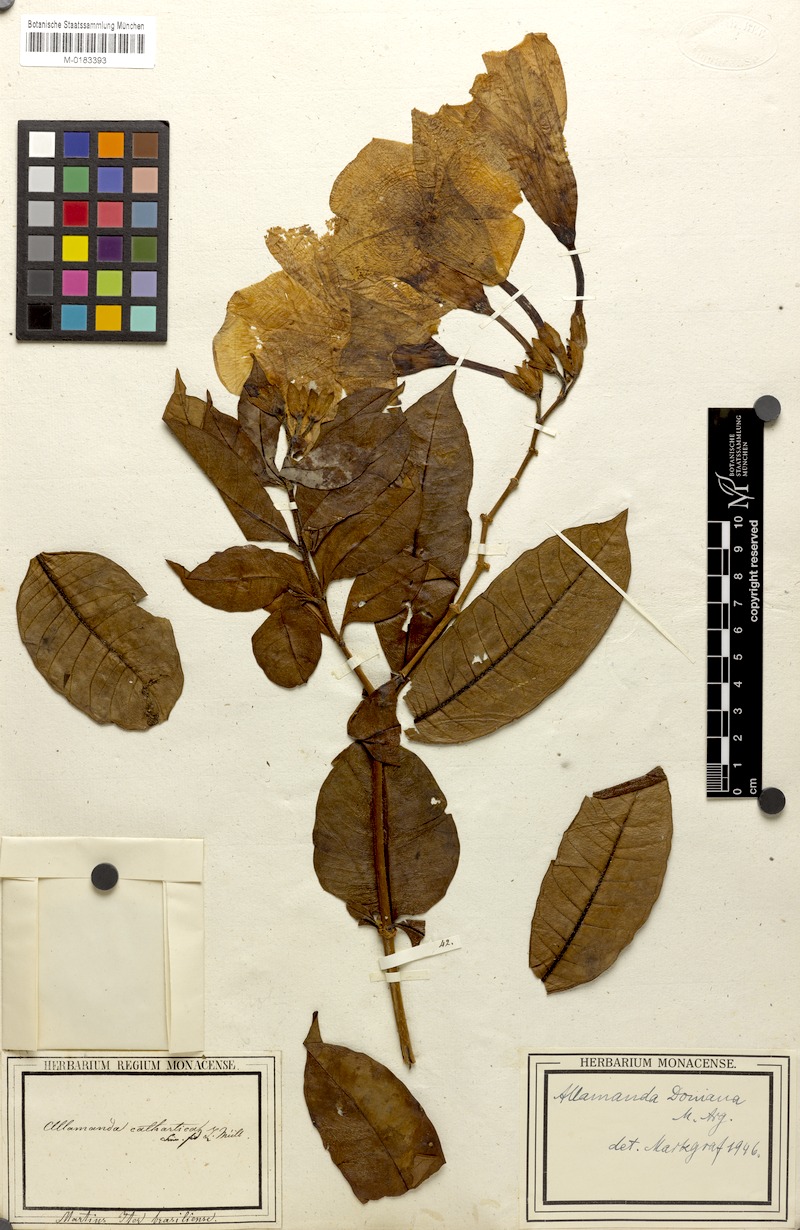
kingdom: Plantae
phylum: Tracheophyta
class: Magnoliopsida
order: Gentianales
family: Apocynaceae
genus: Allamanda
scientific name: Allamanda doniana
